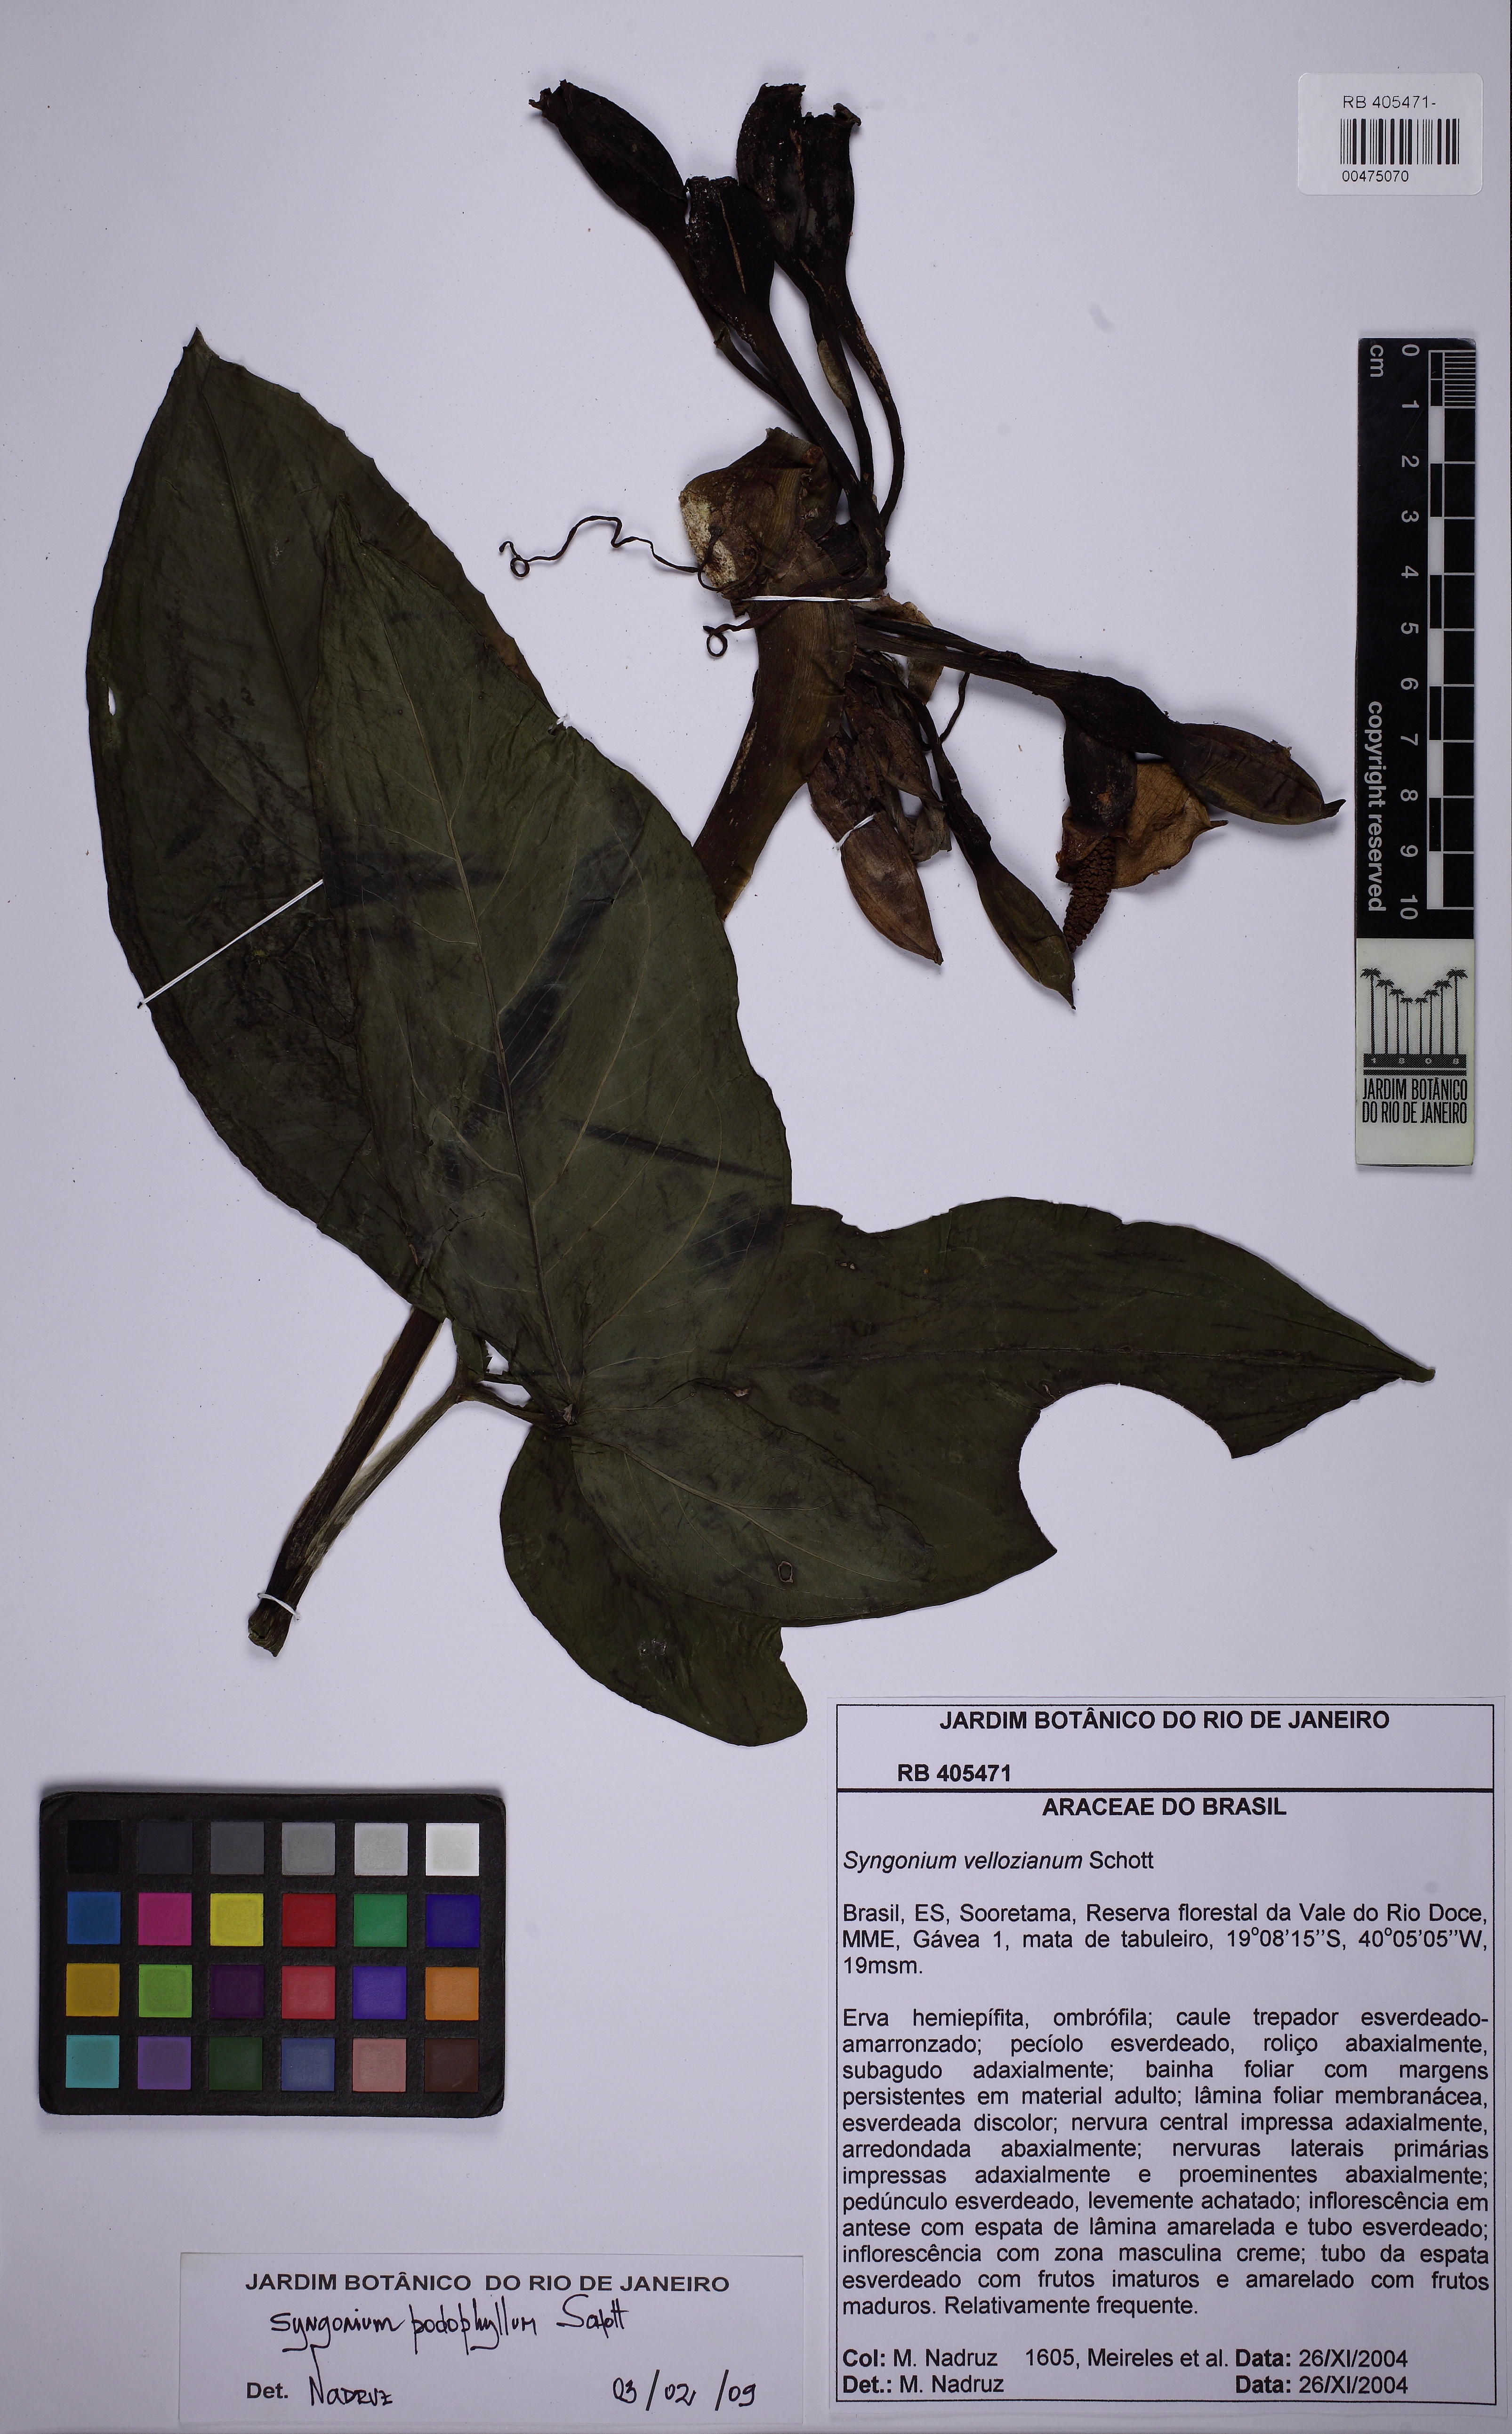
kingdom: Plantae
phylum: Tracheophyta
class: Liliopsida
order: Alismatales
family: Araceae
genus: Syngonium
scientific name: Syngonium podophyllum
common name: American evergreen
